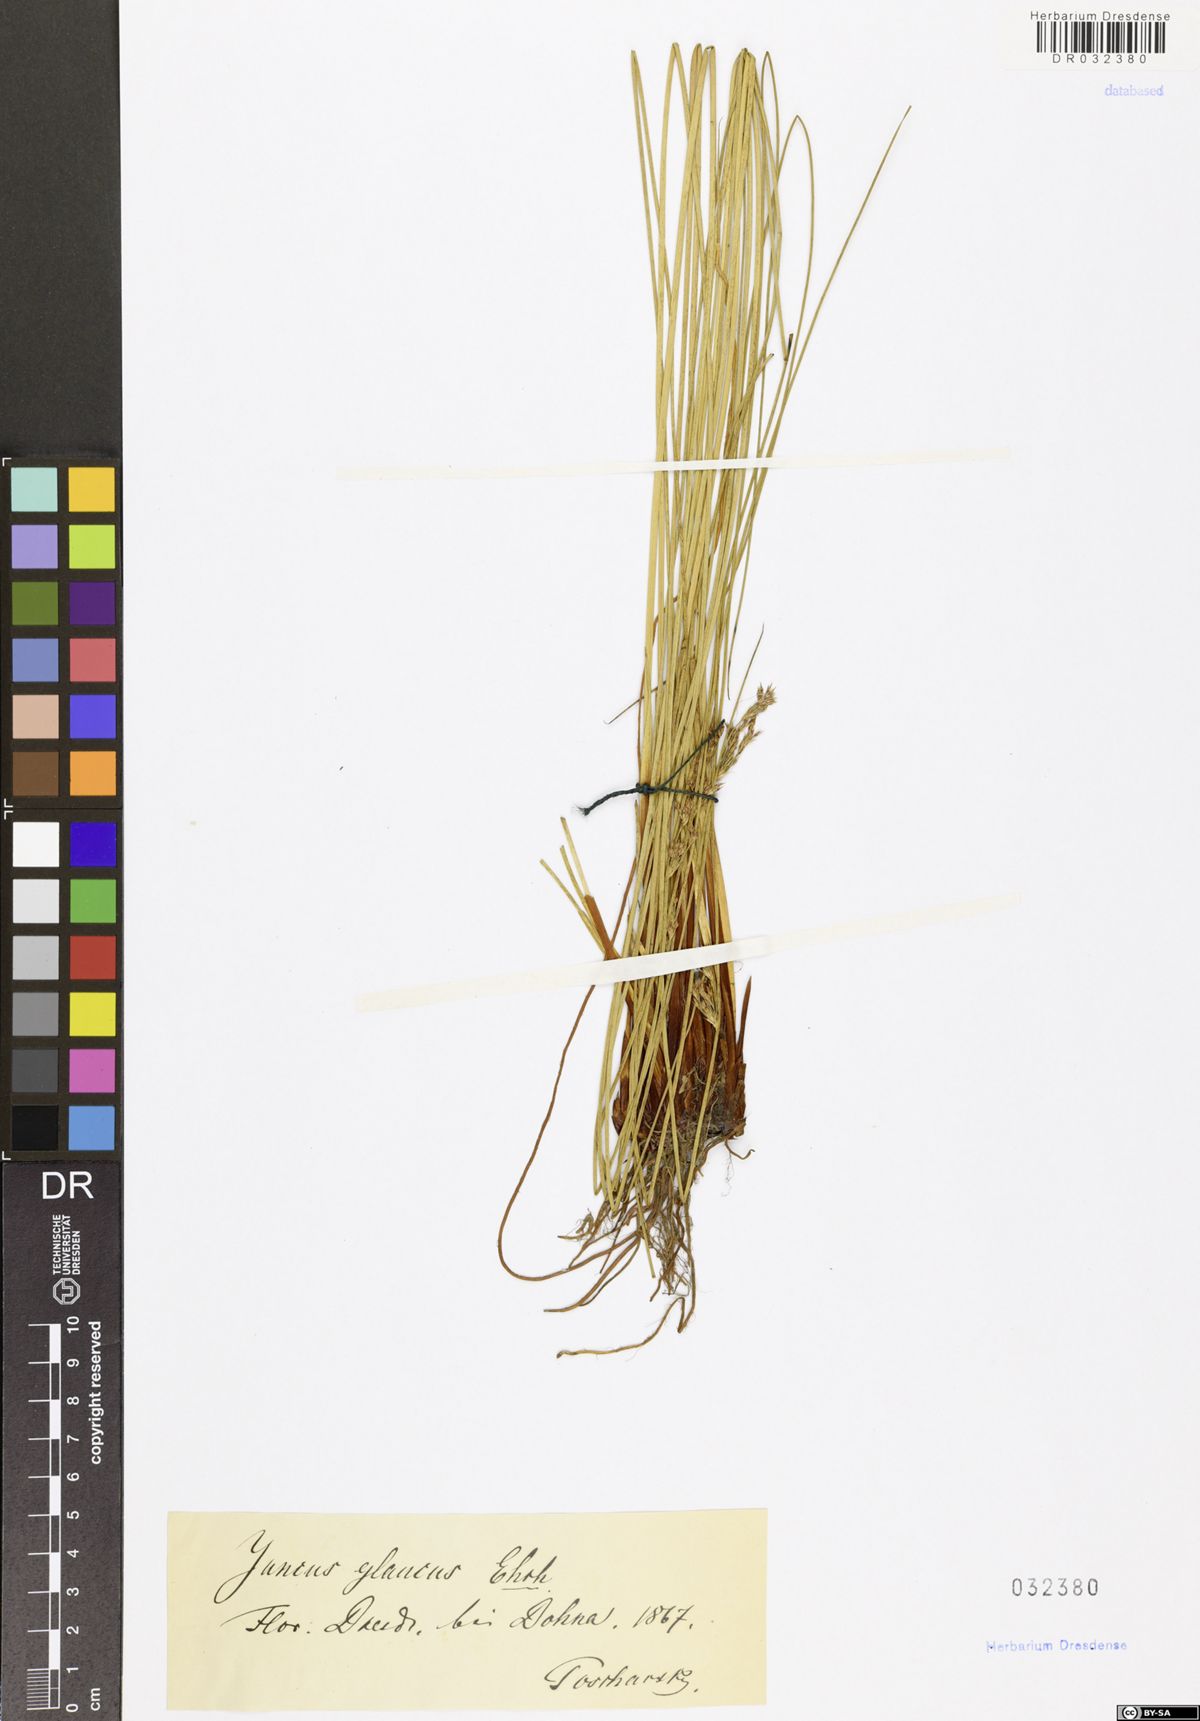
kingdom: Plantae
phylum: Tracheophyta
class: Liliopsida
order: Poales
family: Juncaceae
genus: Juncus
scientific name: Juncus inflexus
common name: Hard rush
